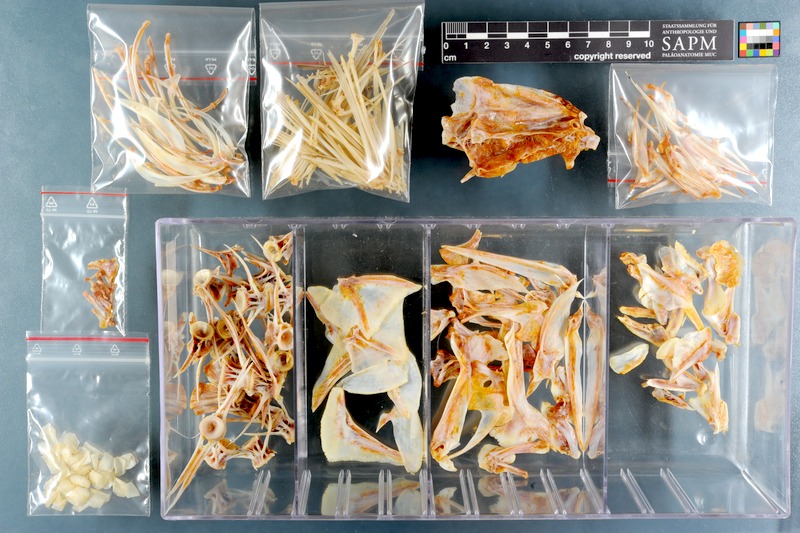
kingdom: Animalia
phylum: Chordata
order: Perciformes
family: Lutjanidae
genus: Paracaesio
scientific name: Paracaesio xanthura
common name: Yellowtail blue snapper
